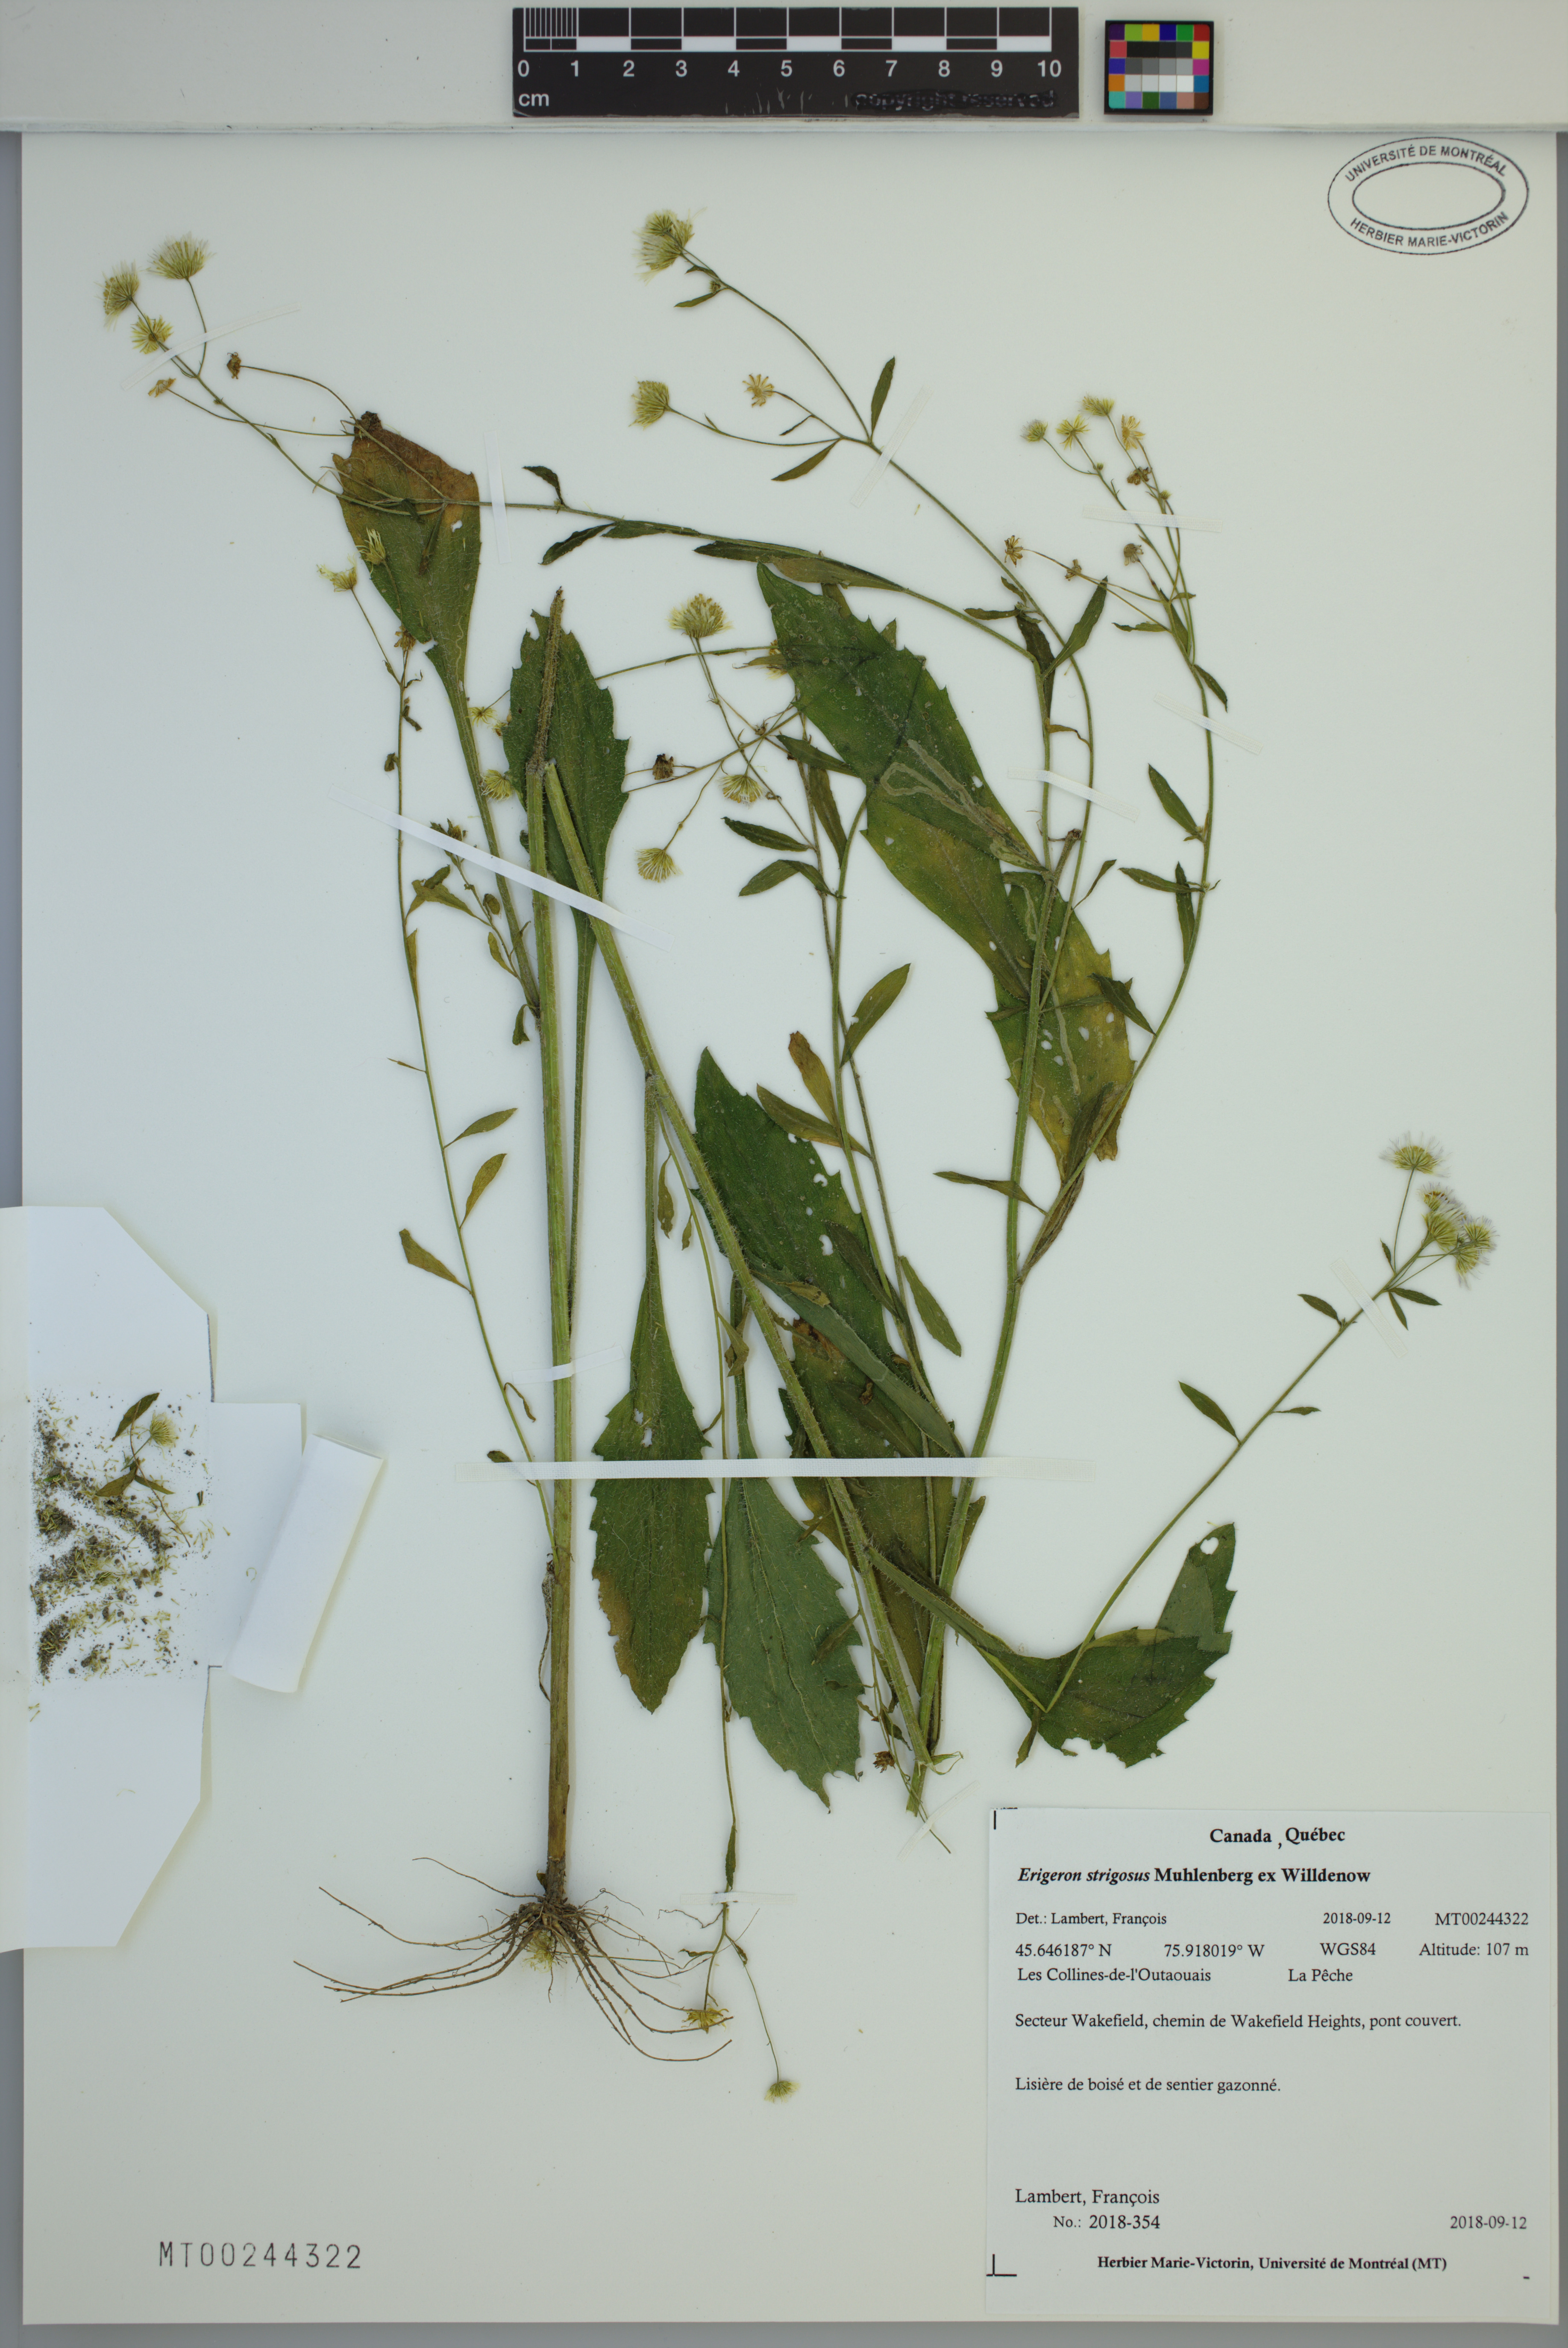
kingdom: Plantae
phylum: Tracheophyta
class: Magnoliopsida
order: Asterales
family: Asteraceae
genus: Erigeron
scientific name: Erigeron strigosus
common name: Common eastern fleabane
